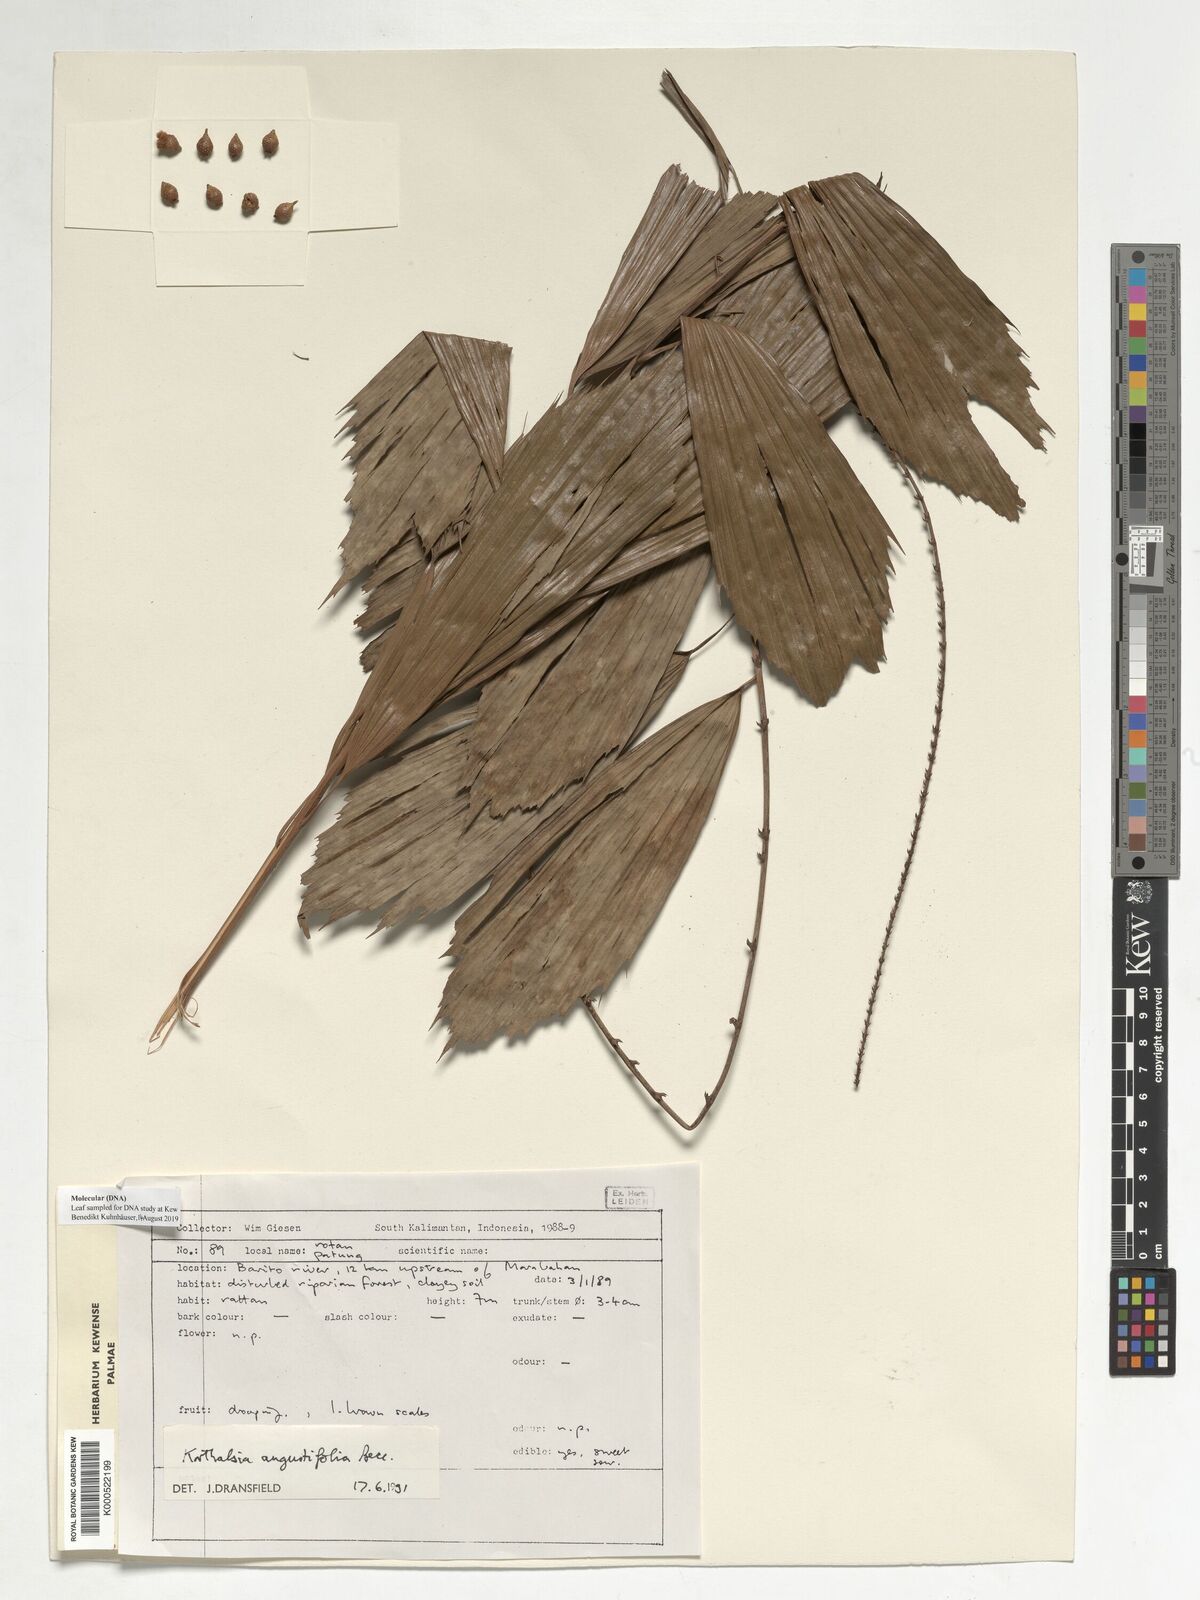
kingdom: Plantae
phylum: Tracheophyta
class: Liliopsida
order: Arecales
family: Arecaceae
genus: Korthalsia
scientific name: Korthalsia angustifolia
